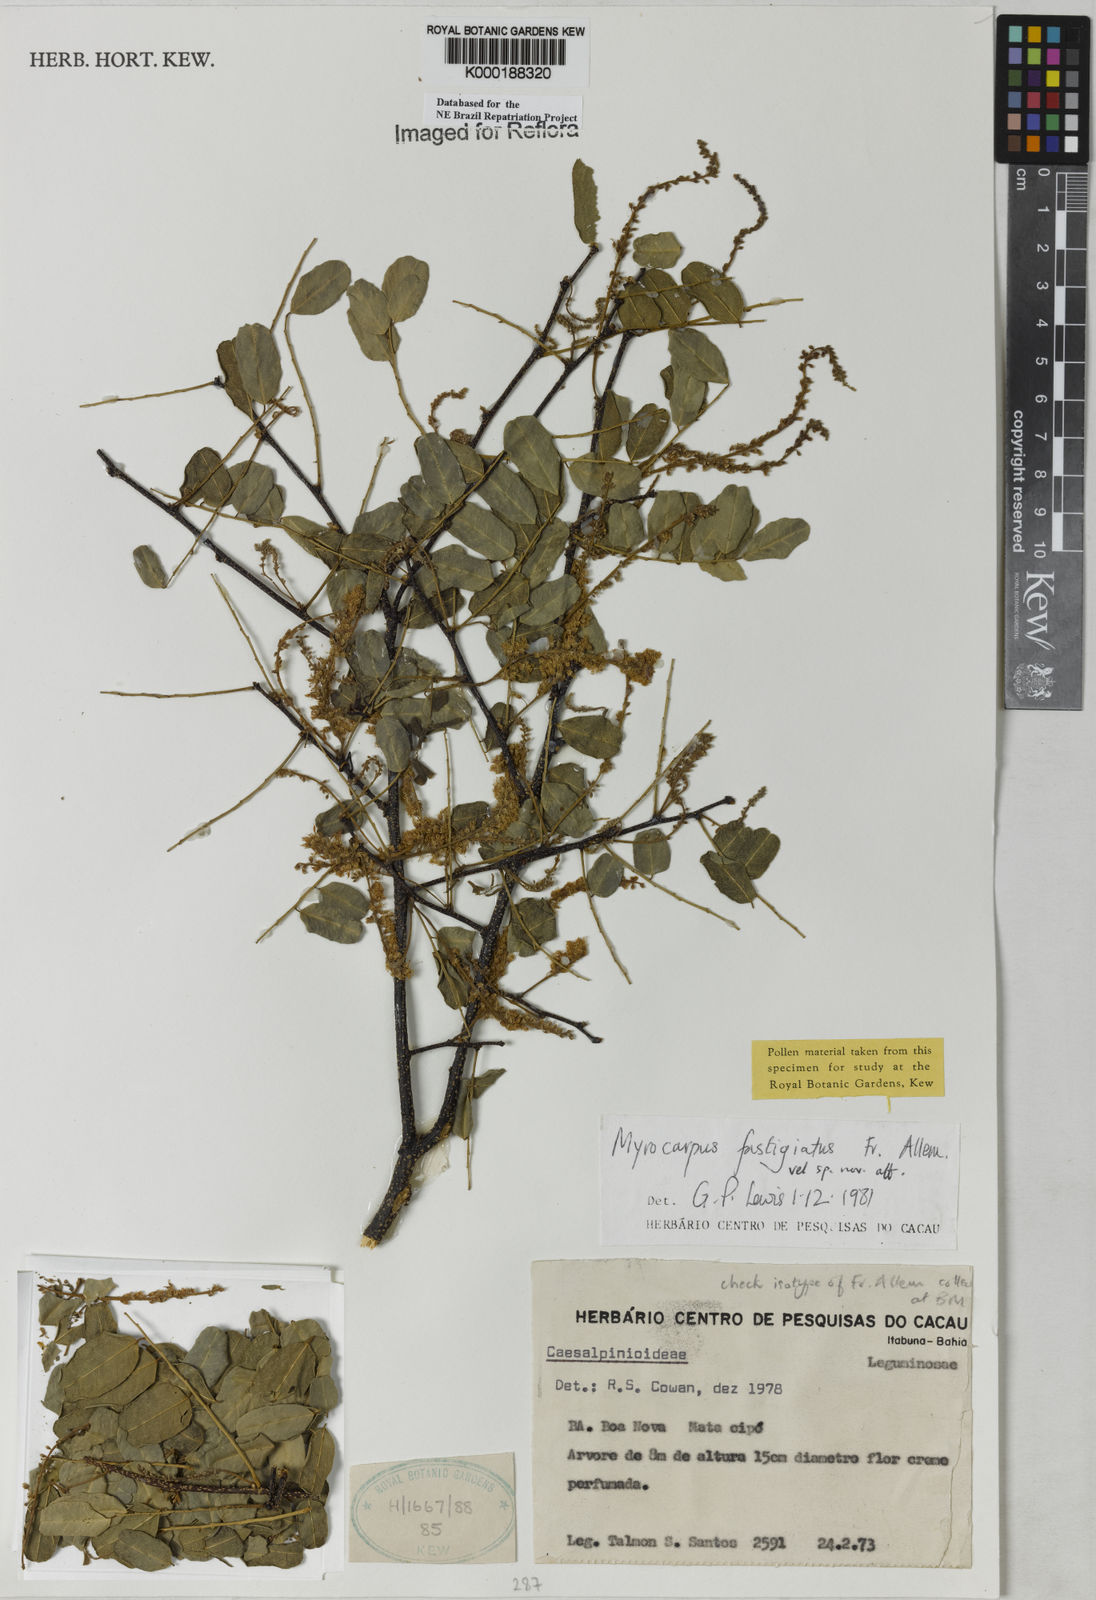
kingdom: Plantae
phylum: Tracheophyta
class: Magnoliopsida
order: Fabales
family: Fabaceae
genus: Myrocarpus
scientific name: Myrocarpus fastigiatus
